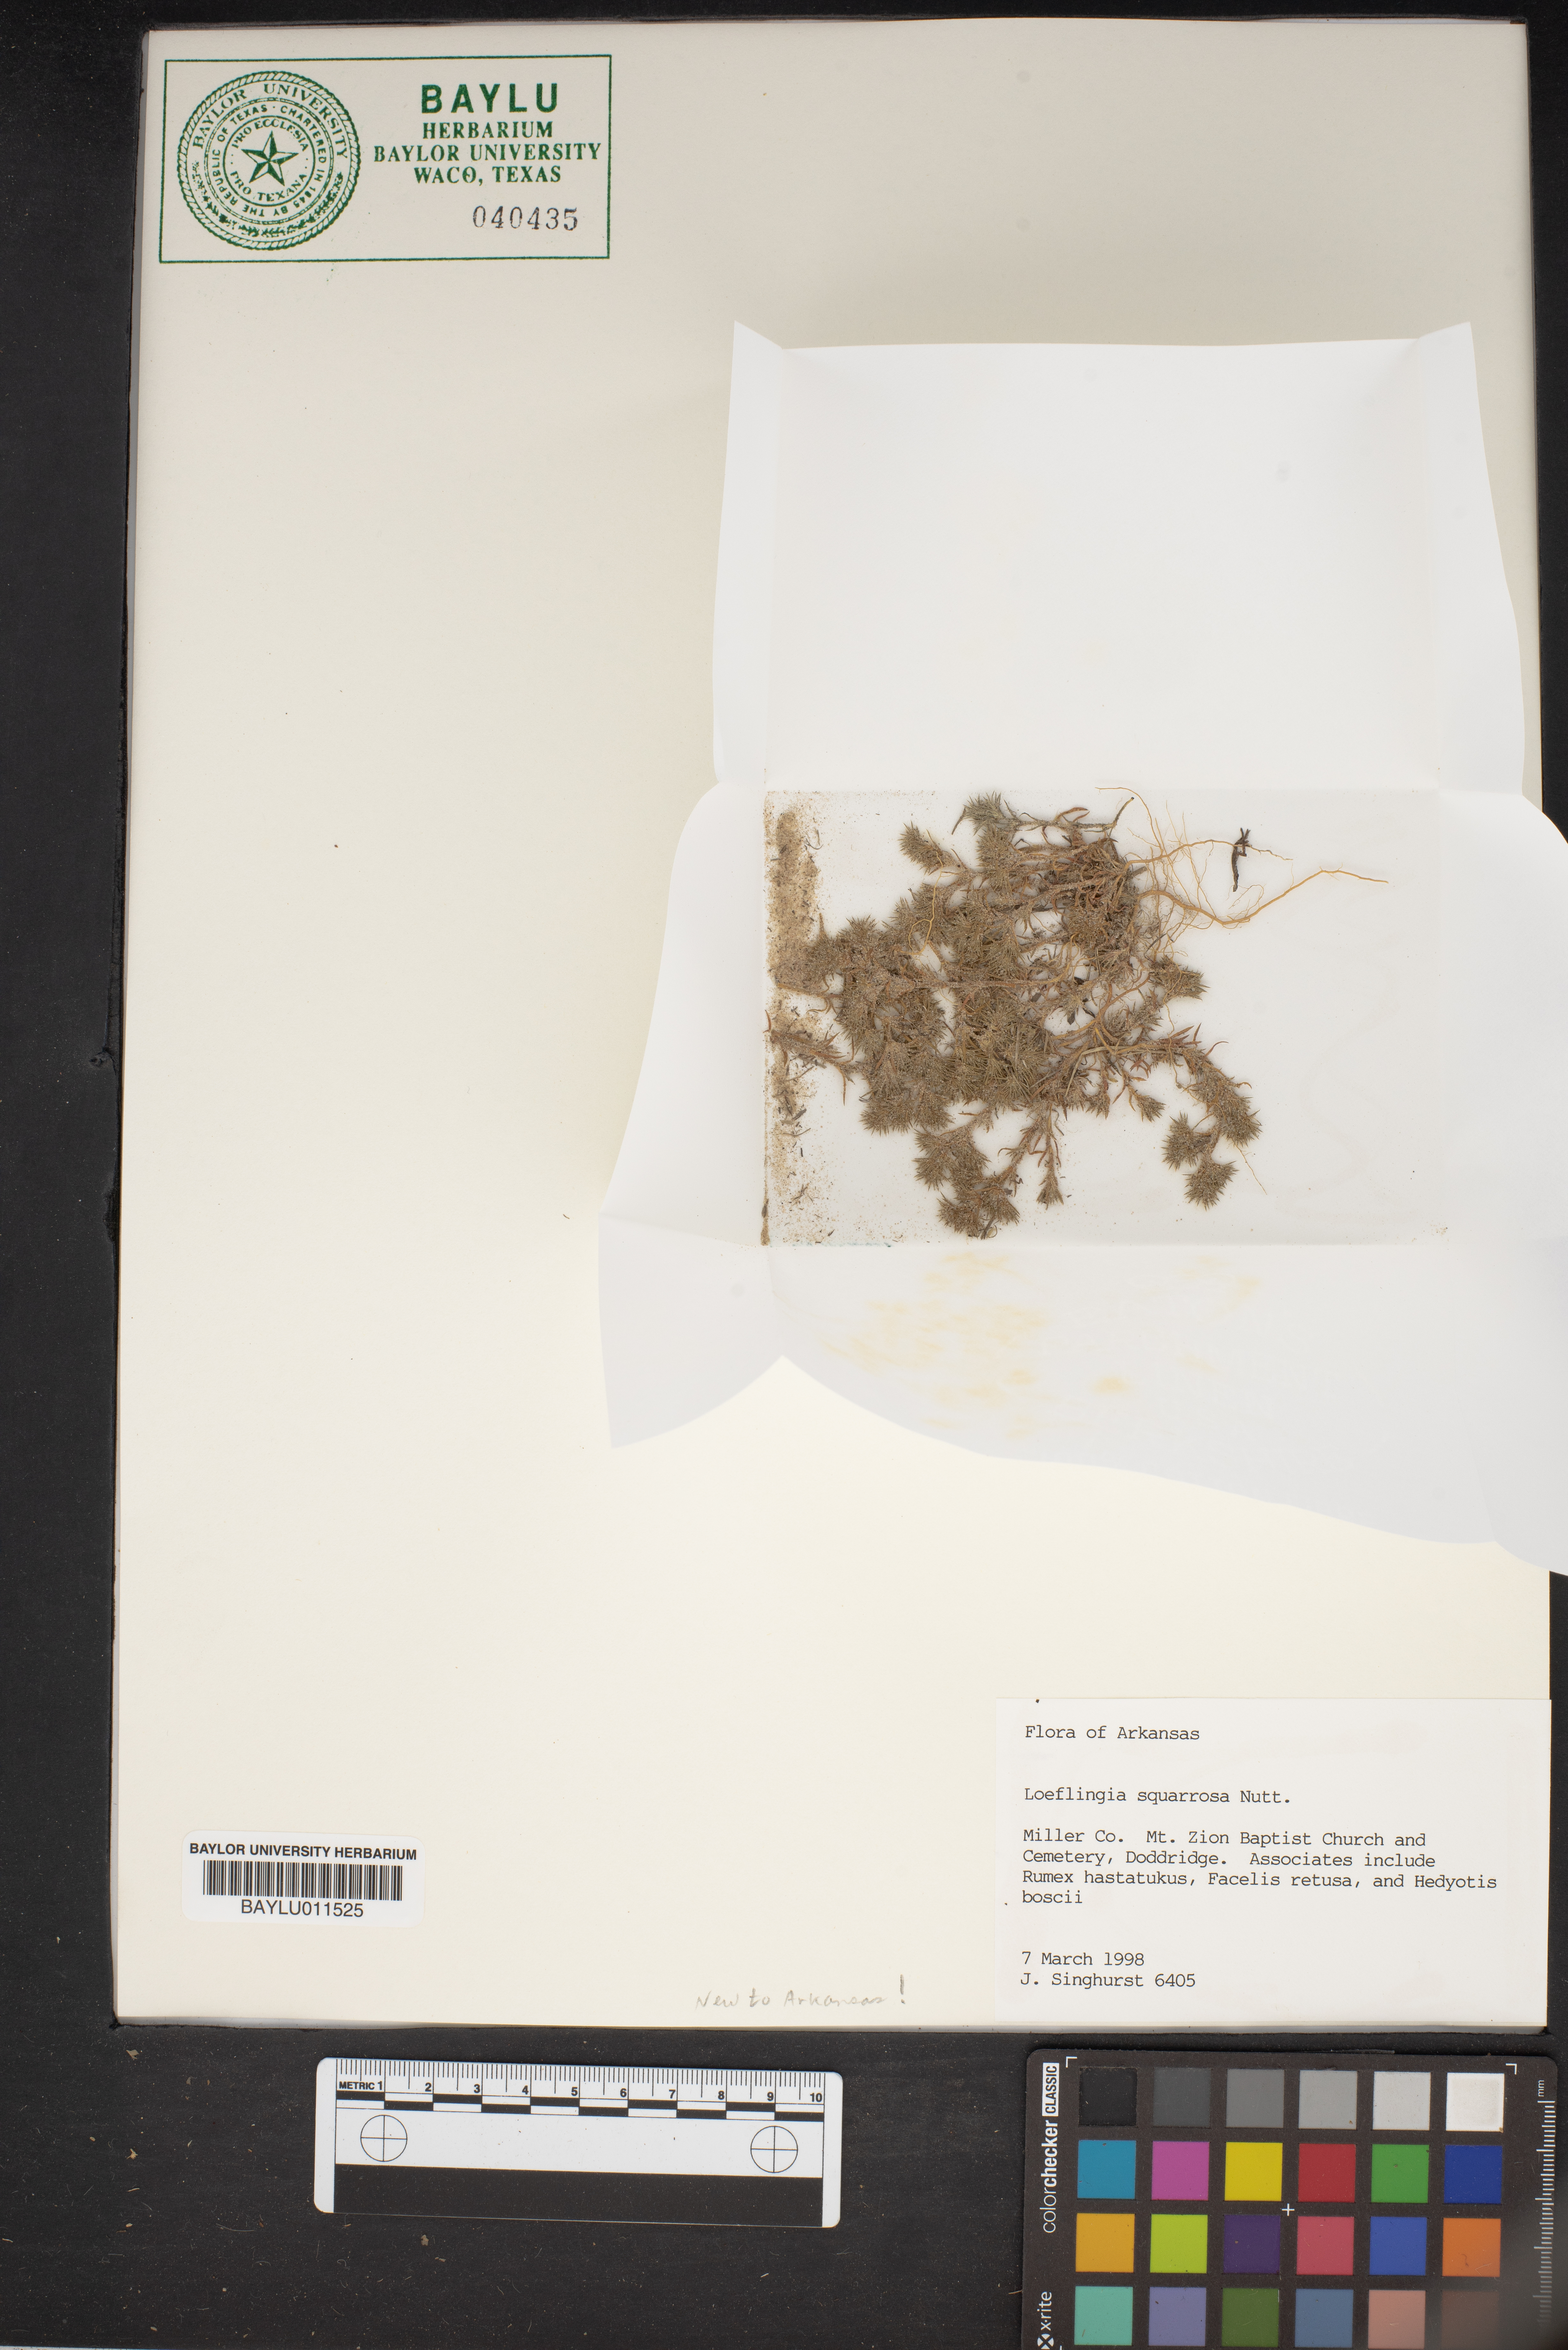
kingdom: Plantae
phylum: Tracheophyta
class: Magnoliopsida
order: Caryophyllales
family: Caryophyllaceae
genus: Loeflingia
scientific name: Loeflingia squarrosa
